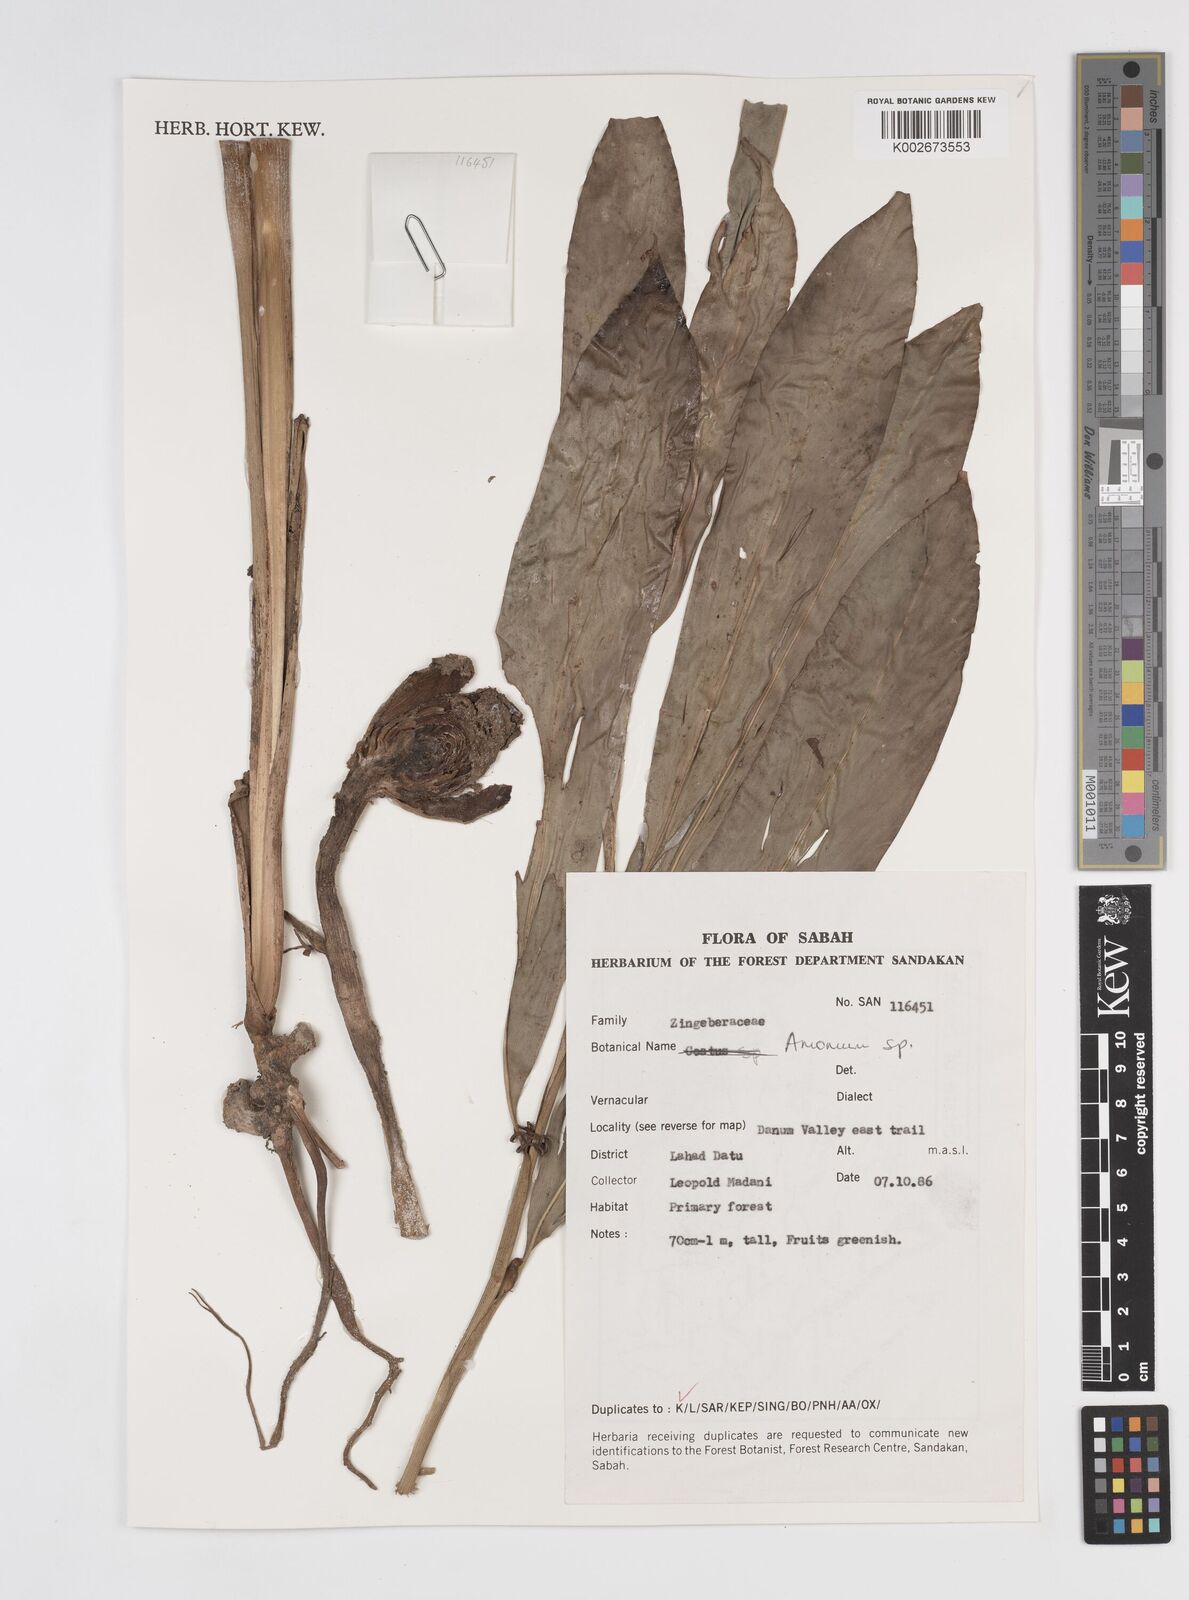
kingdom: Plantae
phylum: Tracheophyta
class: Liliopsida
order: Zingiberales
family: Zingiberaceae
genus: Amomum
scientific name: Amomum
